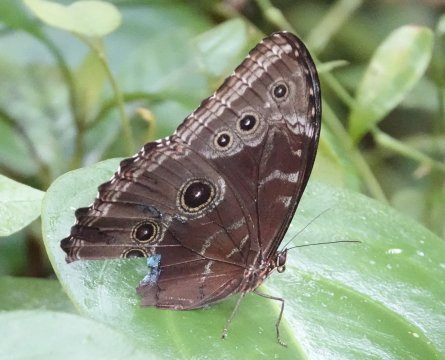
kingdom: Animalia
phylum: Arthropoda
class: Insecta
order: Lepidoptera
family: Nymphalidae
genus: Morpho
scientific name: Morpho helenor
